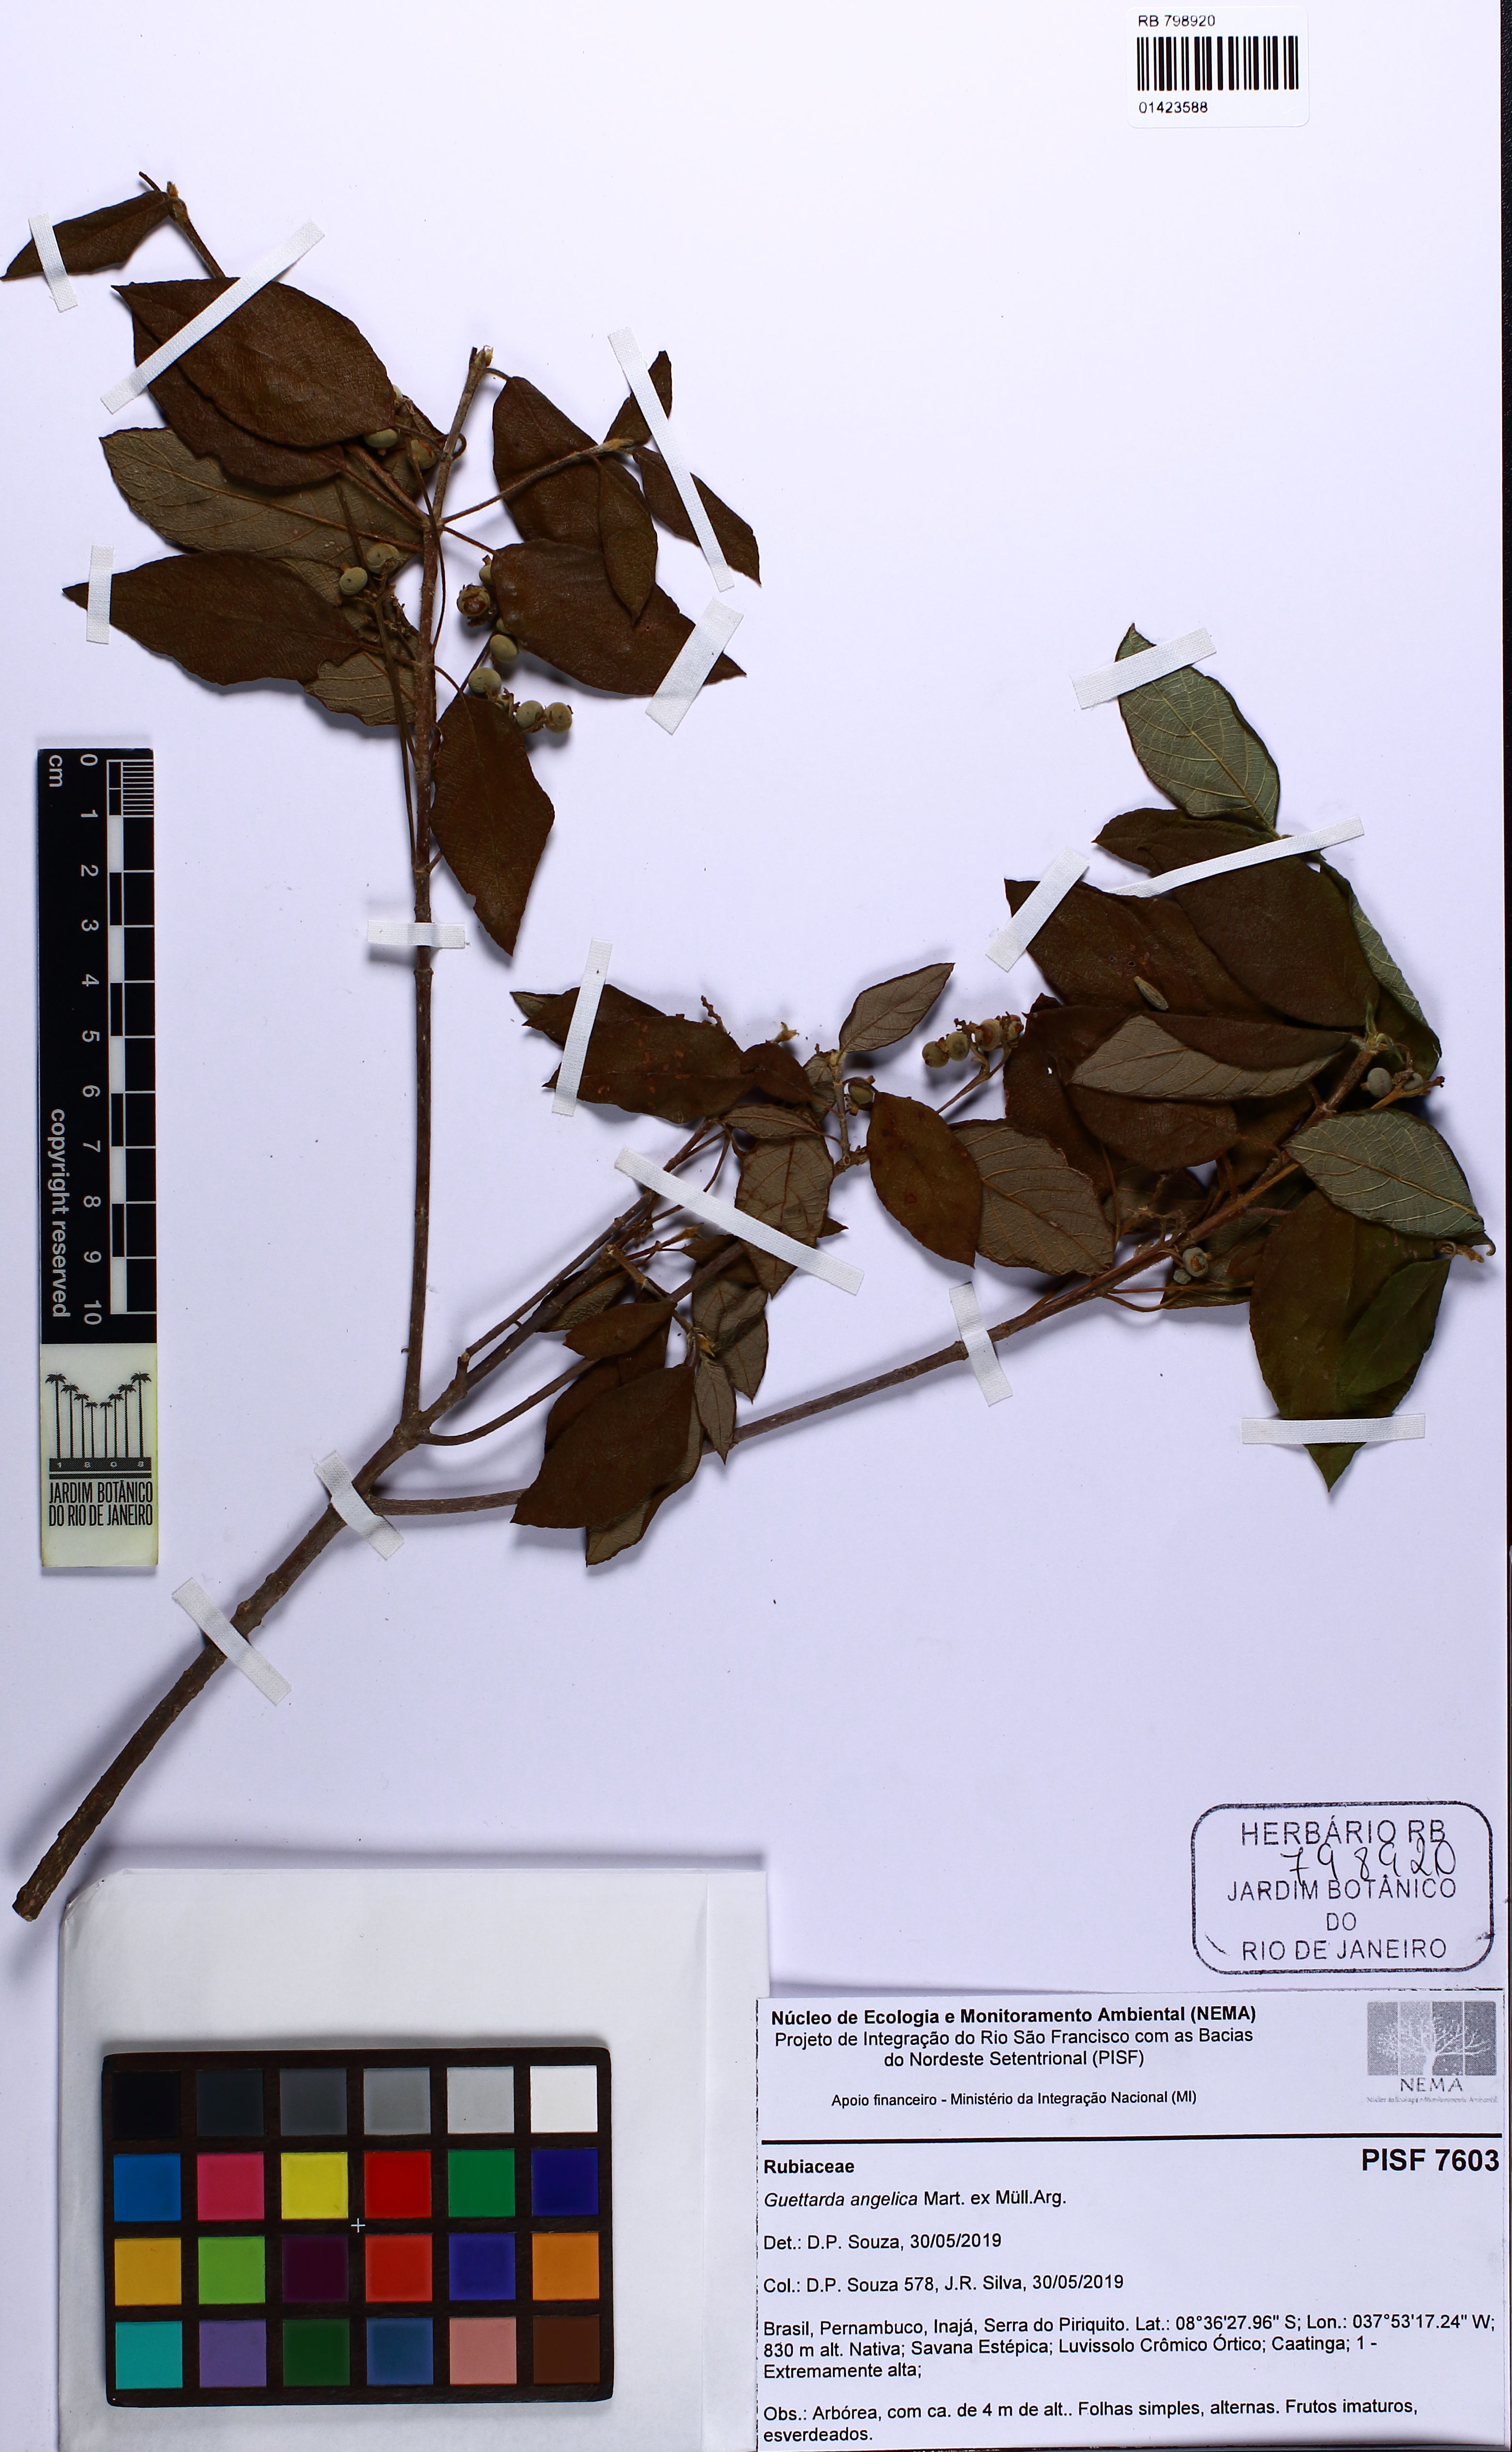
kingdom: Plantae
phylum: Tracheophyta
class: Magnoliopsida
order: Gentianales
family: Rubiaceae
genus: Guettarda
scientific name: Guettarda angelica
